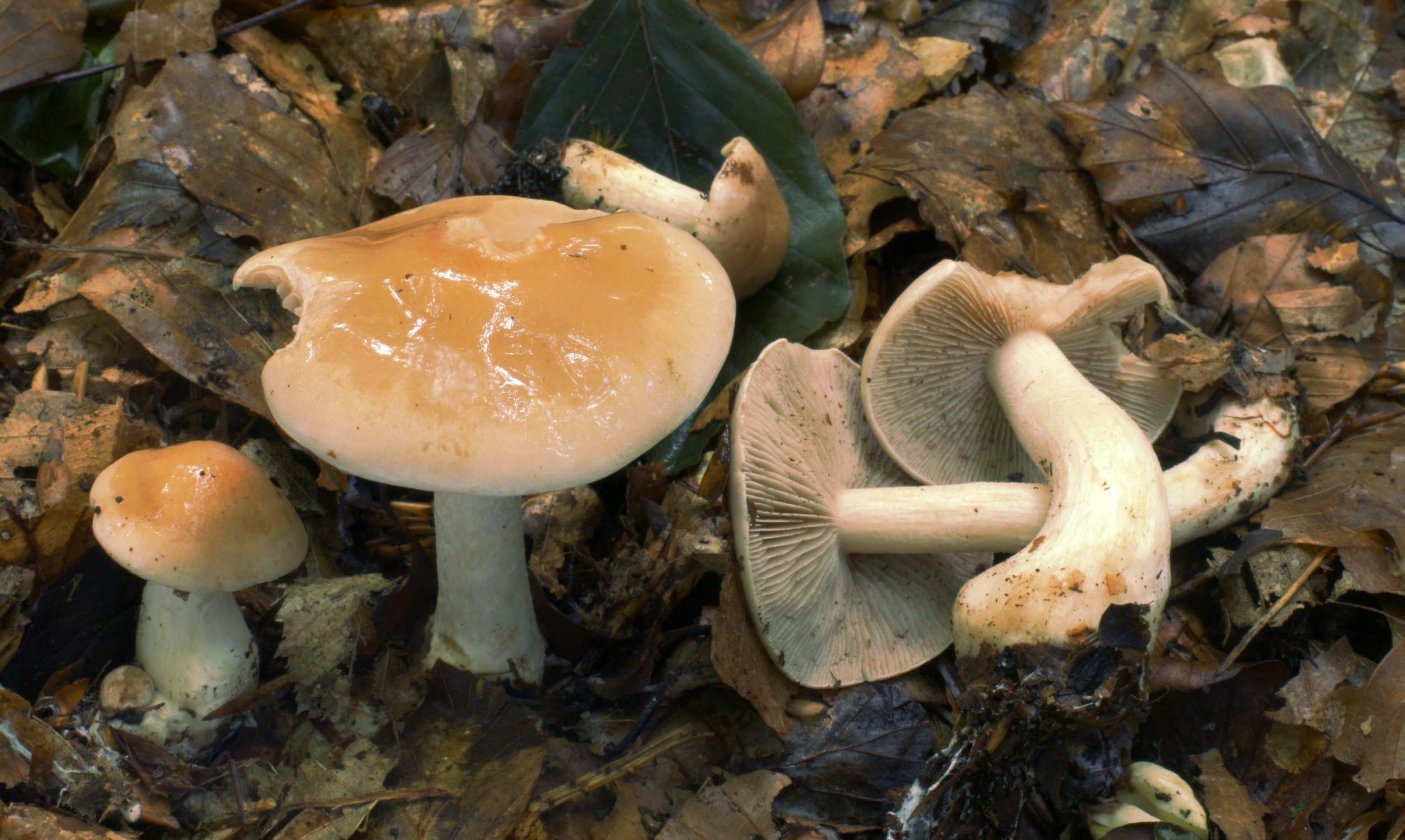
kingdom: Fungi
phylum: Basidiomycota
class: Agaricomycetes
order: Agaricales
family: Hymenogastraceae
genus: Hebeloma
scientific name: Hebeloma leucosarx
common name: højstokket tåreblad
